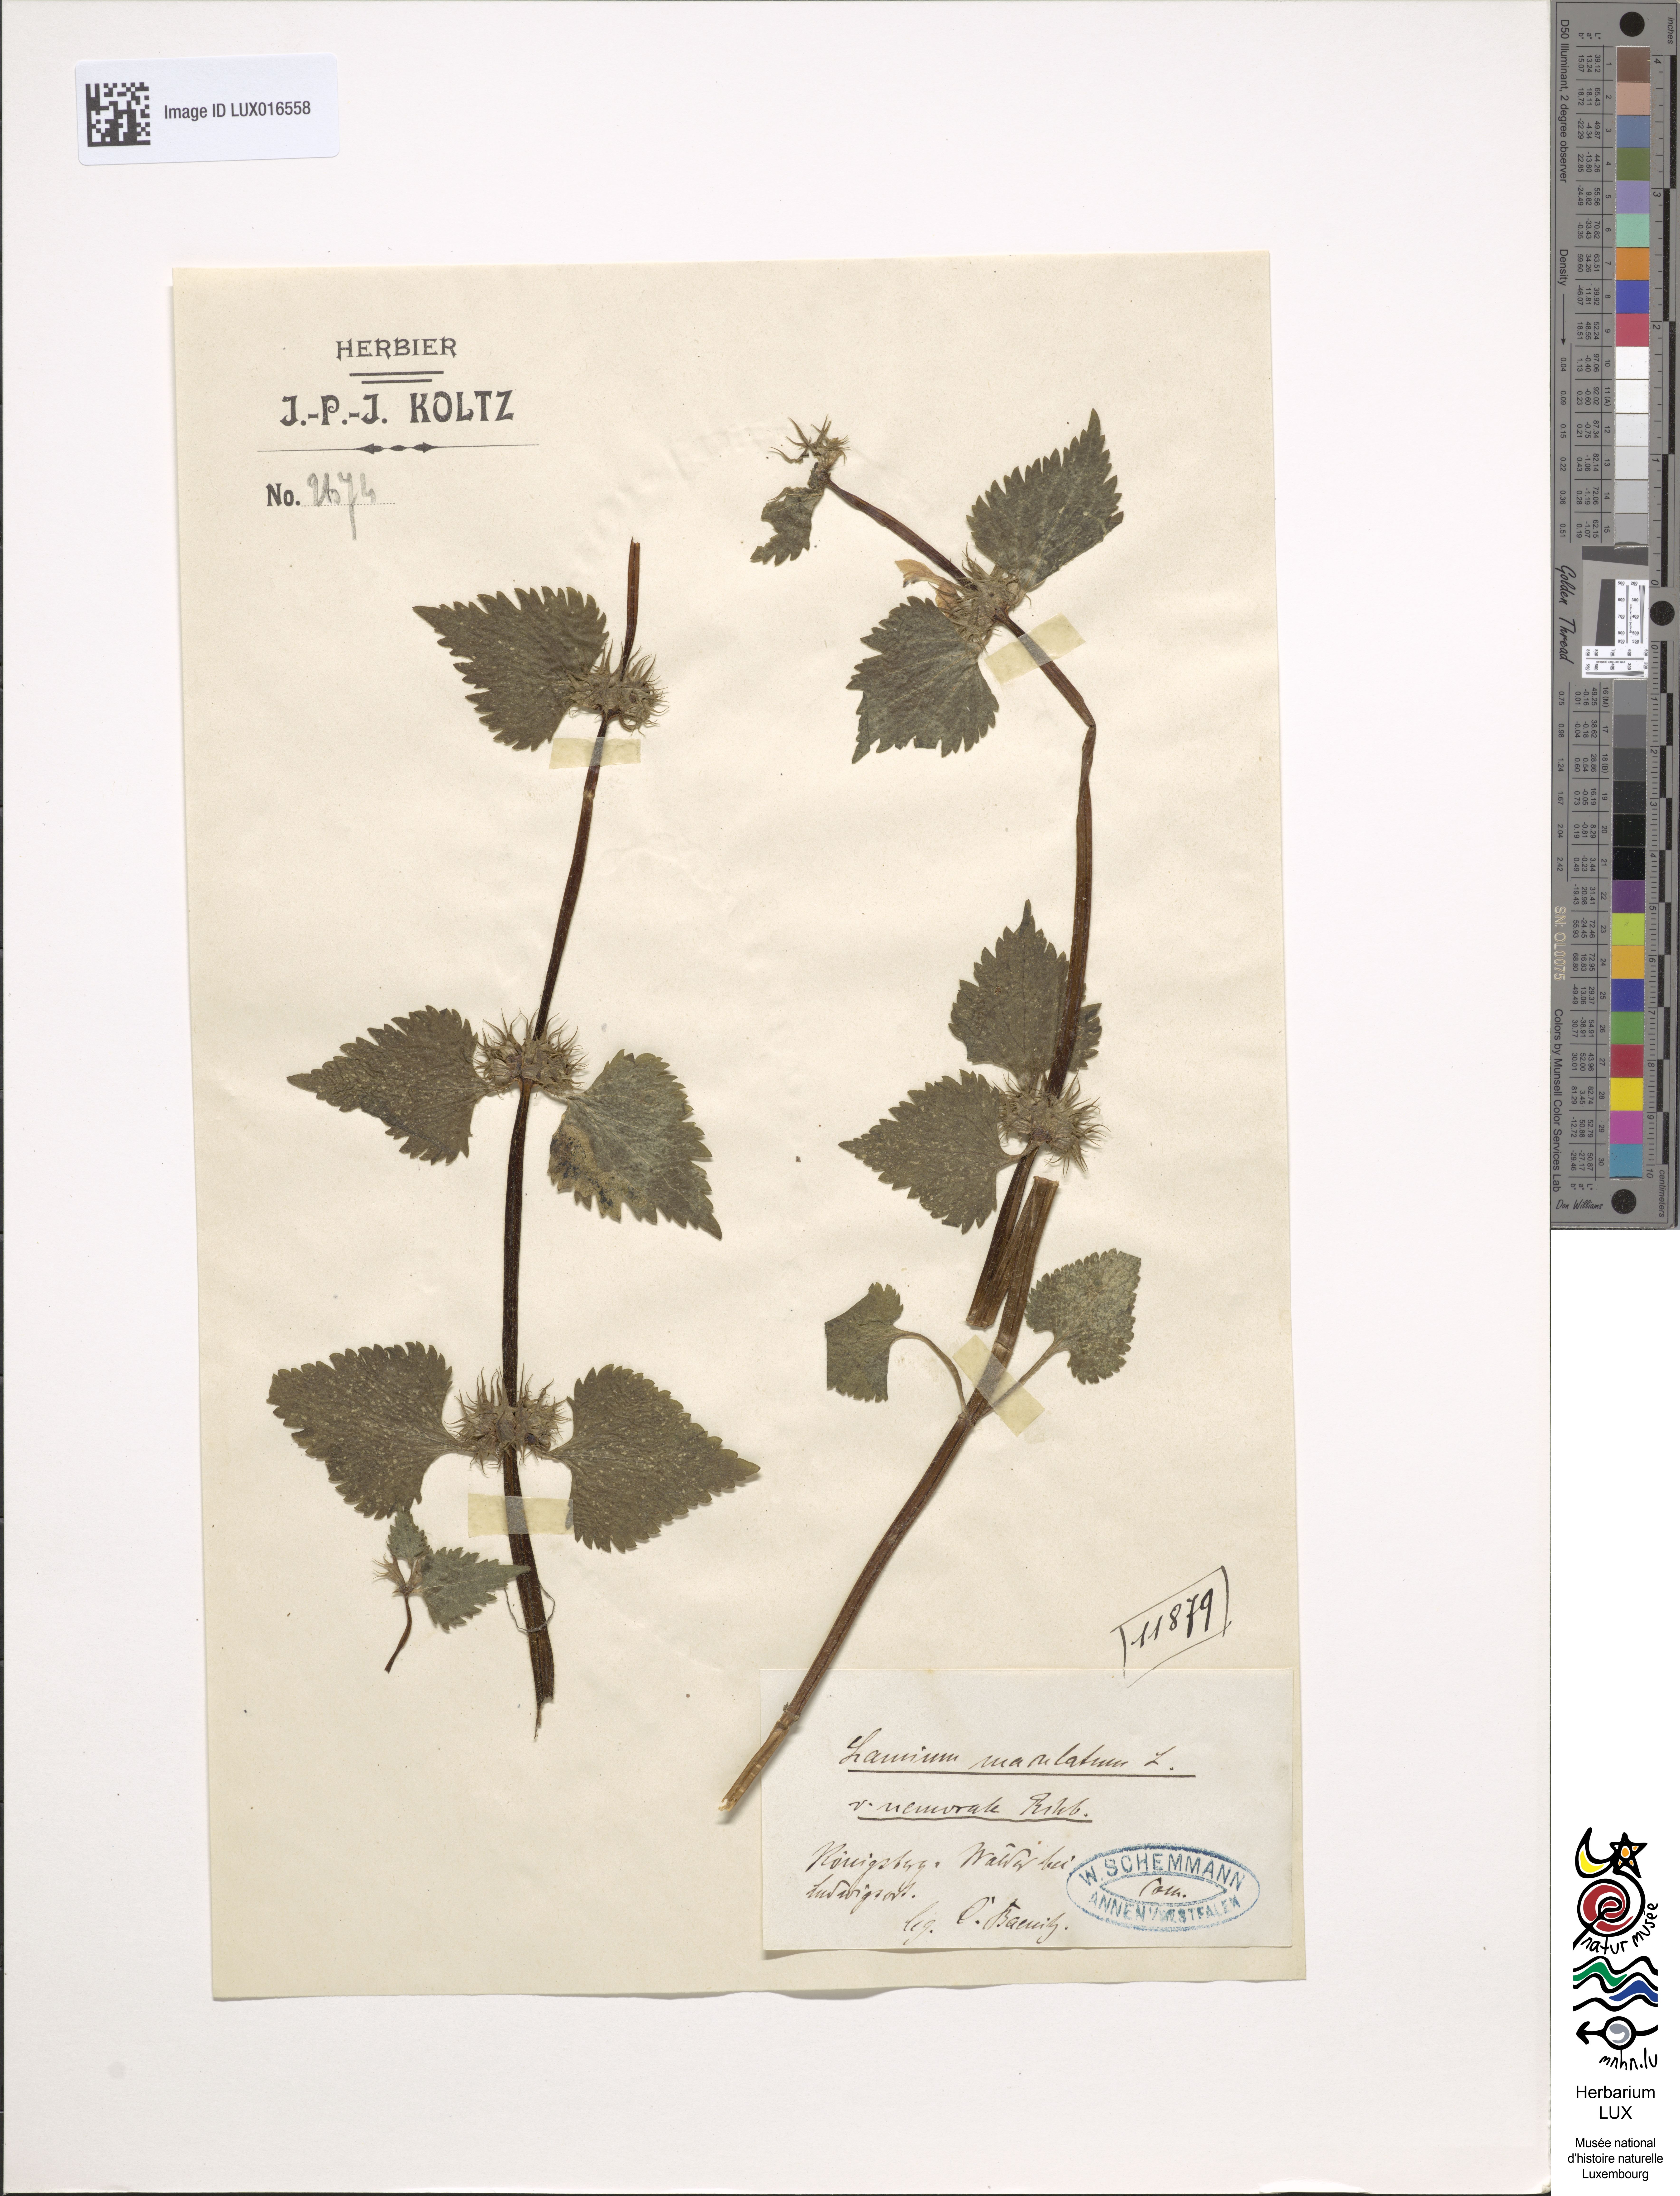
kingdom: Plantae
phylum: Tracheophyta
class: Magnoliopsida
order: Lamiales
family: Lamiaceae
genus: Lamium
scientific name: Lamium maculatum
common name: Spotted dead-nettle
